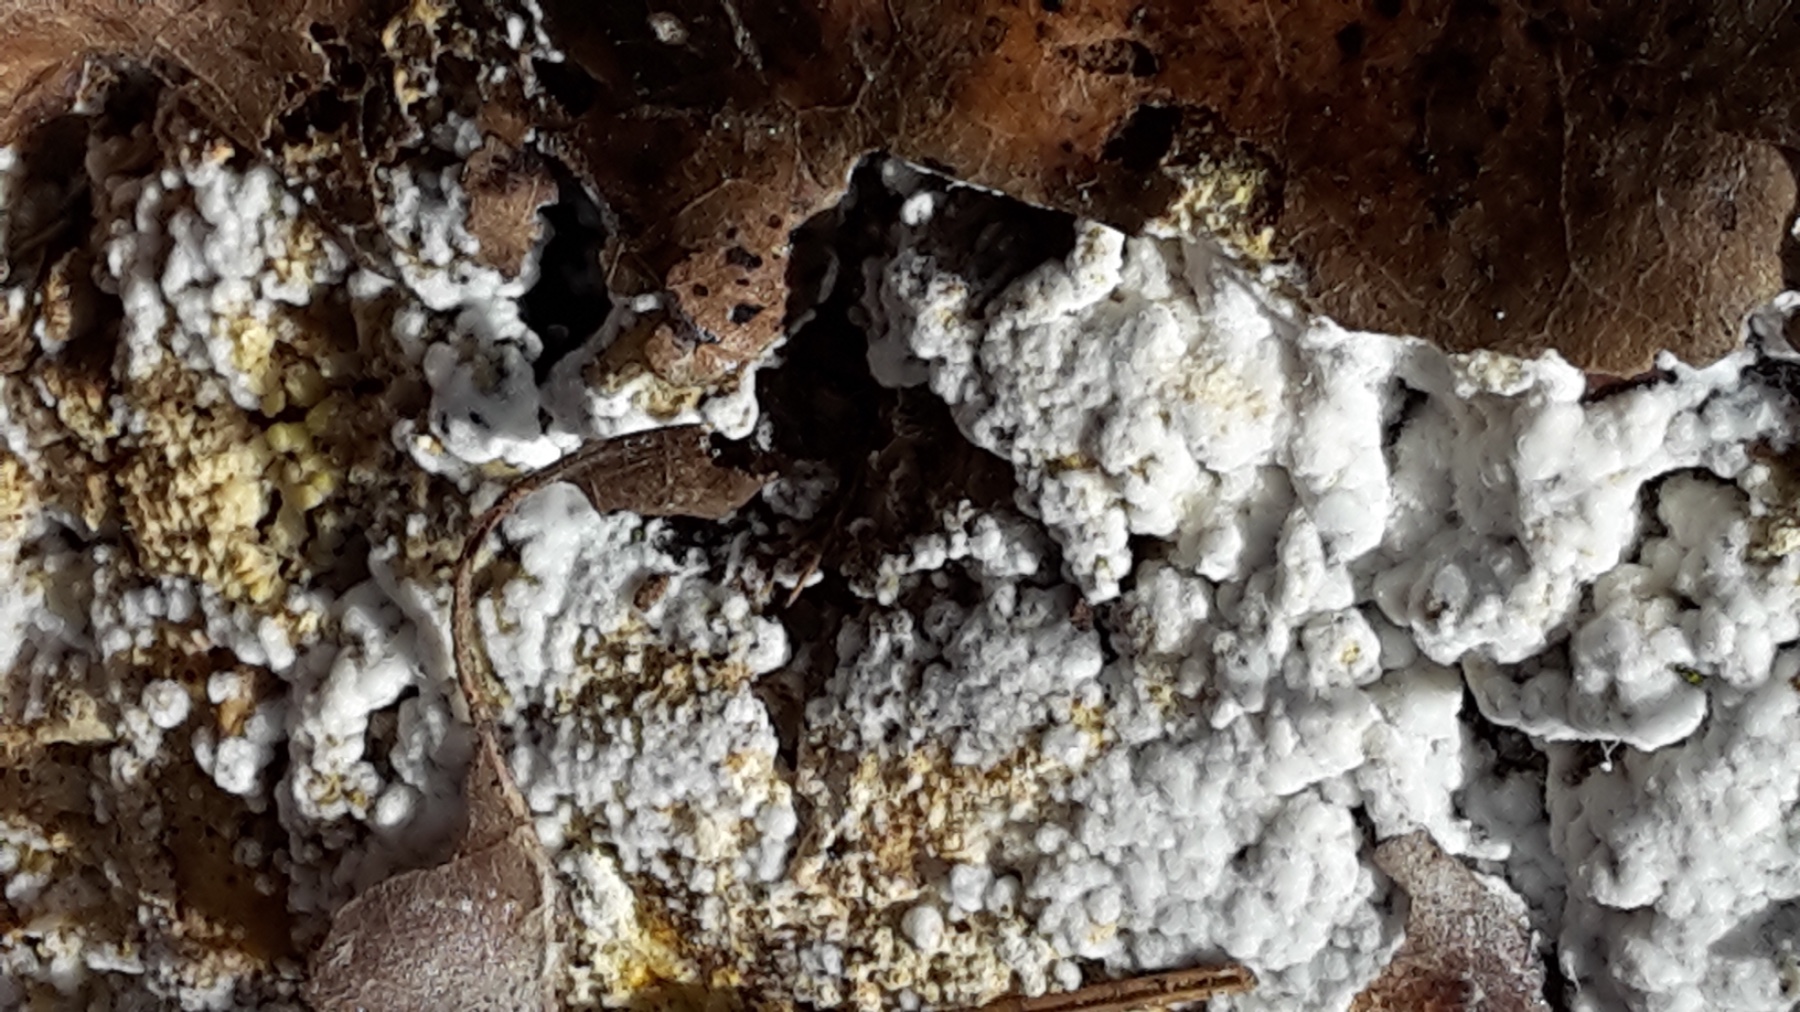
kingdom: Fungi
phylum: Ascomycota
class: Sordariomycetes
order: Hypocreales
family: Hypocreaceae
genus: Cladobotryum
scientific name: Cladobotryum
